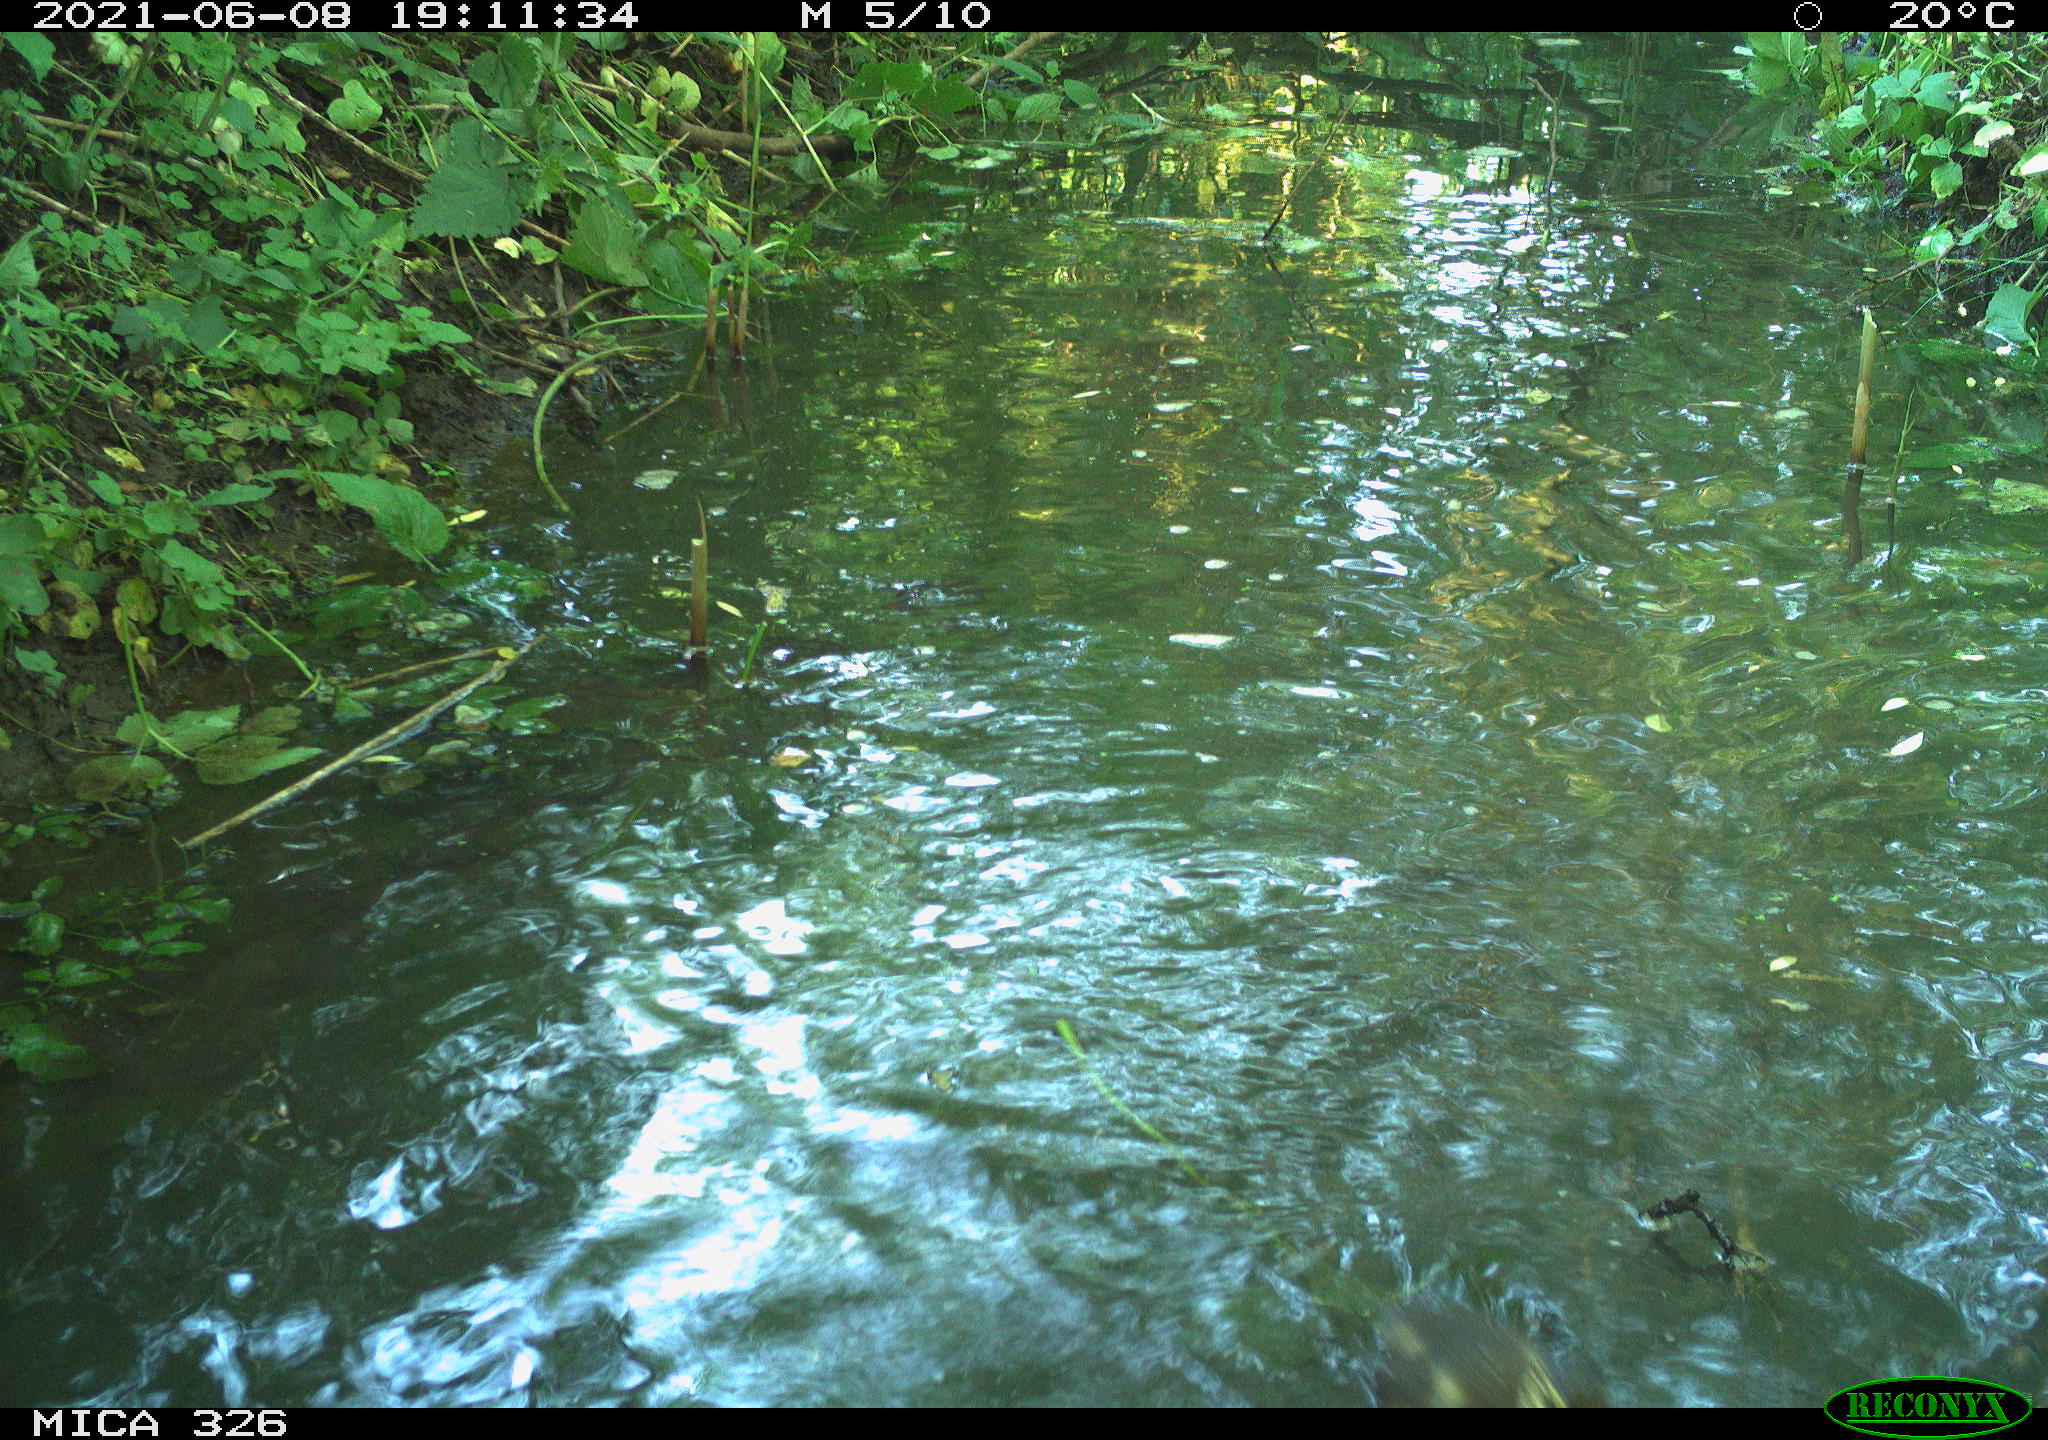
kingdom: Animalia
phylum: Chordata
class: Aves
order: Anseriformes
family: Anatidae
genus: Anas
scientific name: Anas platyrhynchos
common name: Mallard
